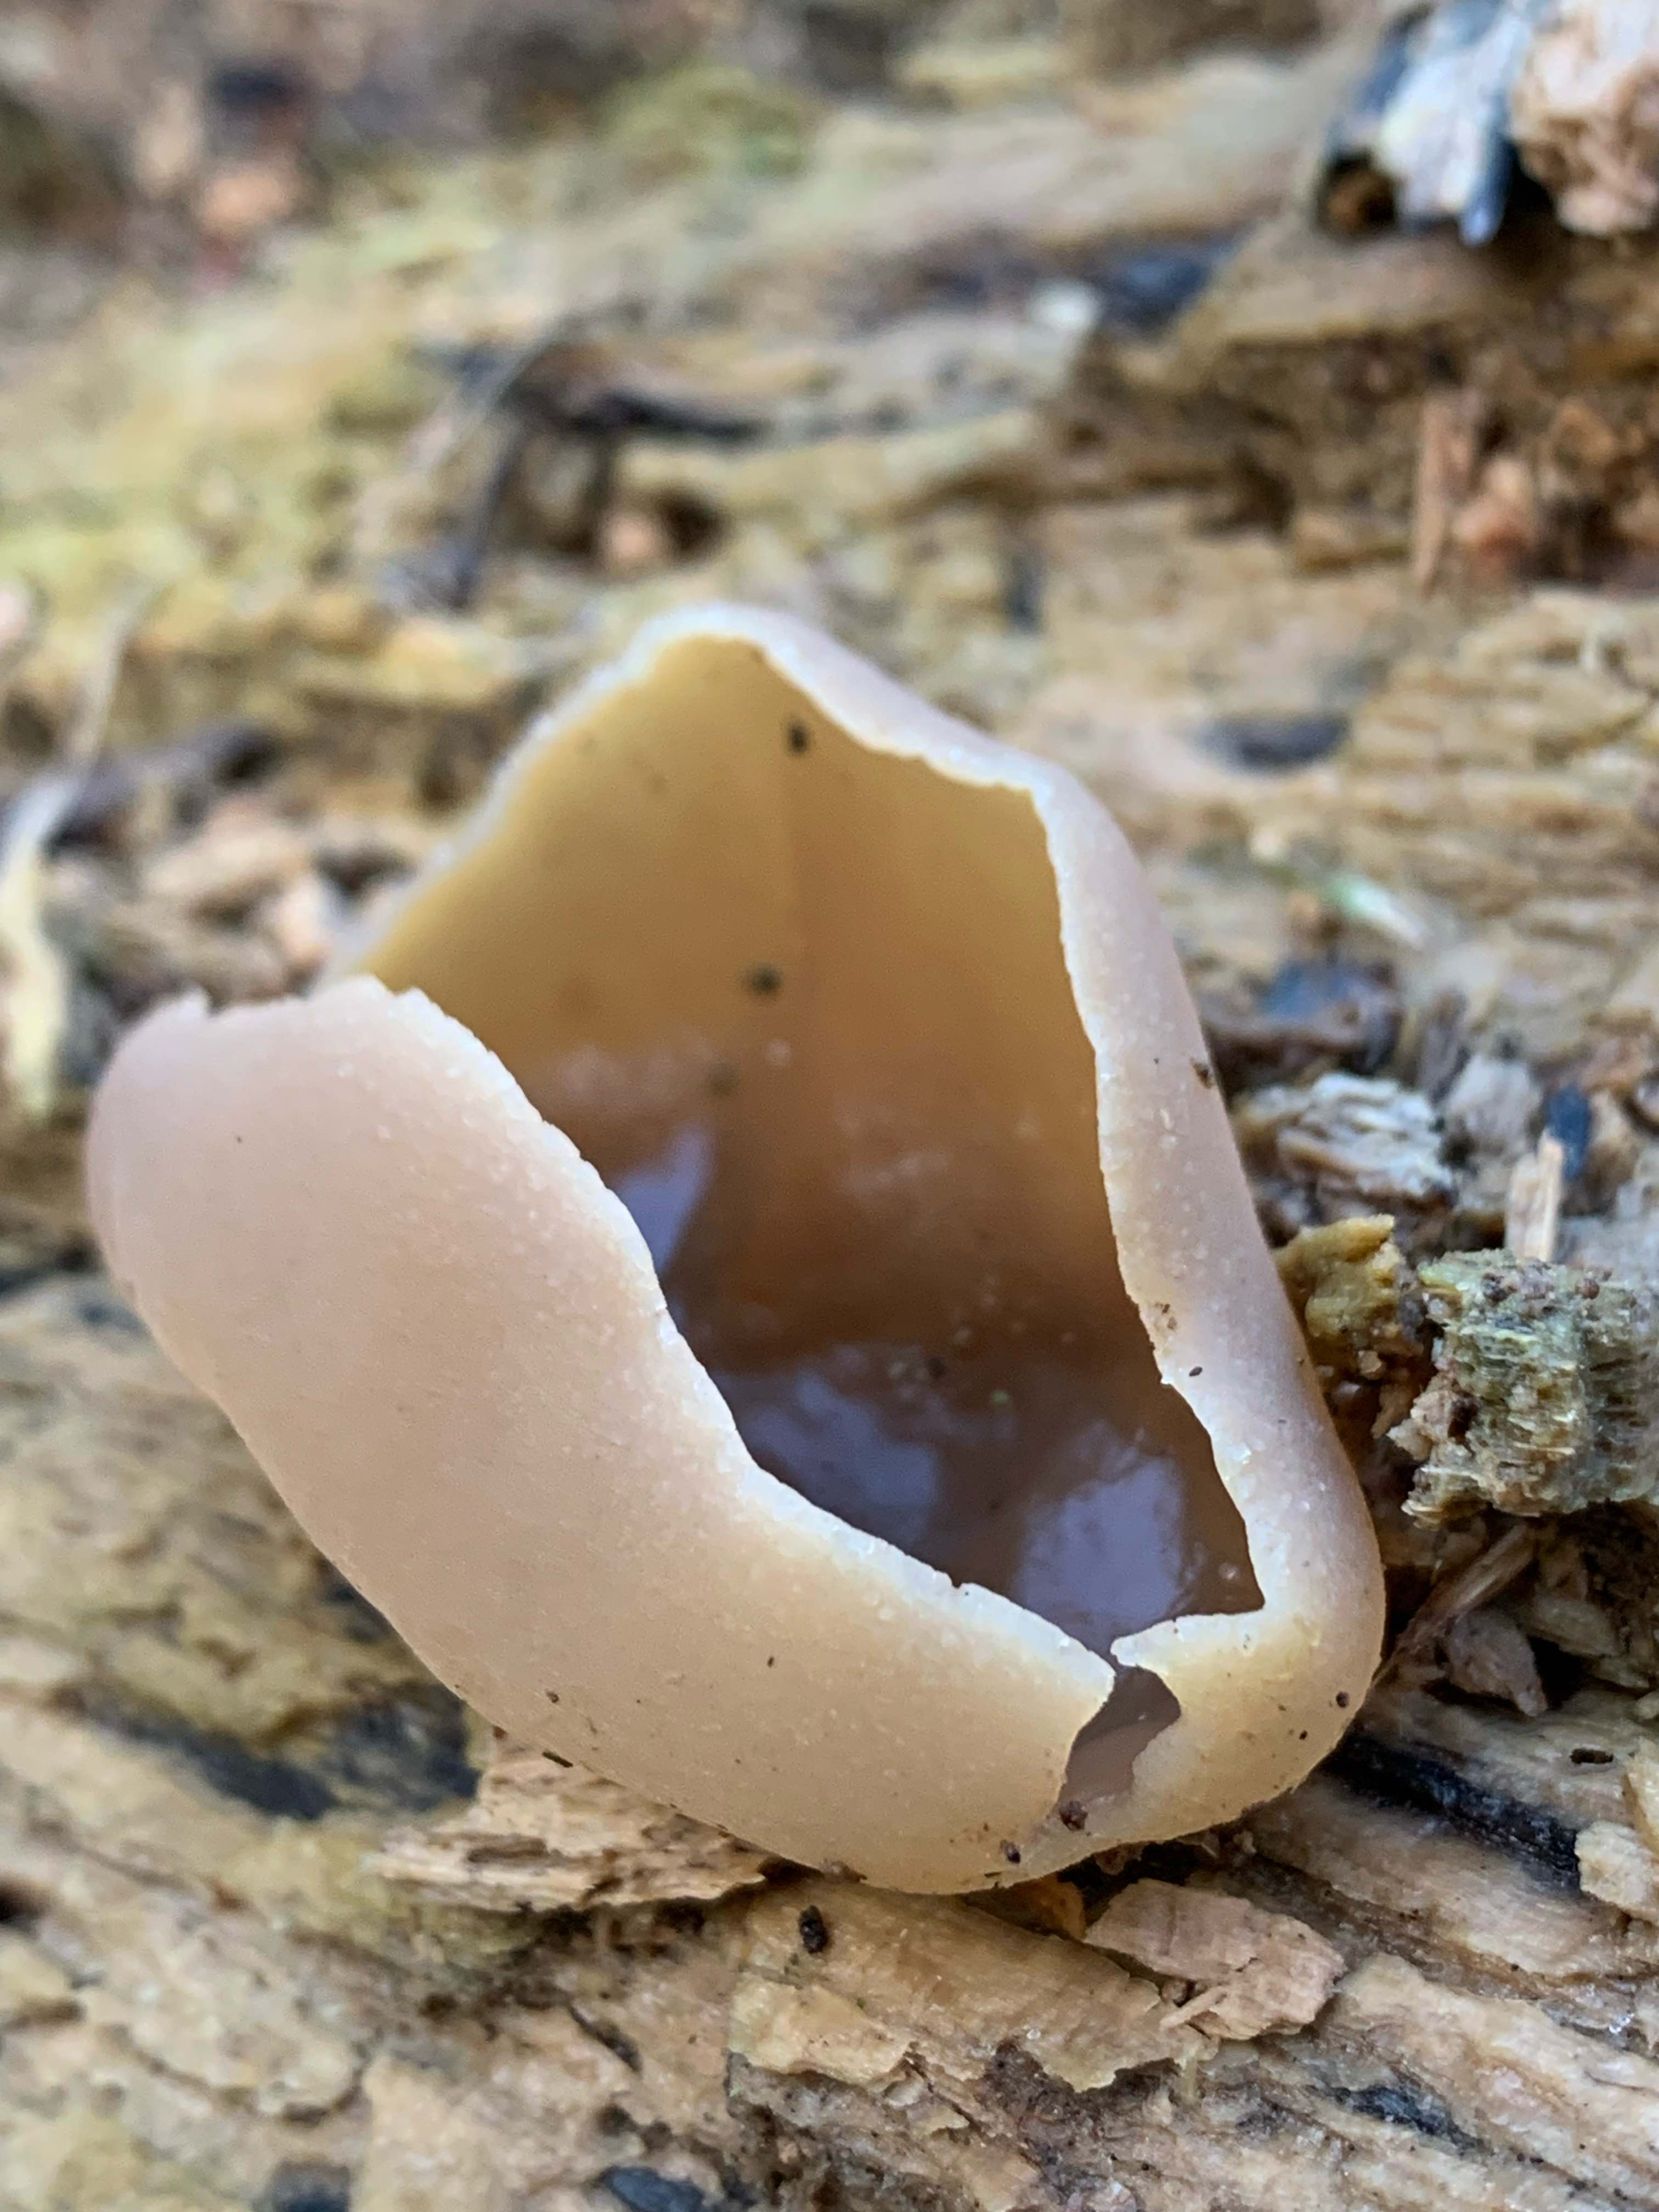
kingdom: Fungi
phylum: Ascomycota
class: Pezizomycetes
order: Pezizales
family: Pezizaceae
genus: Peziza
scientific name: Peziza varia
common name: Ved-bægersvamp
